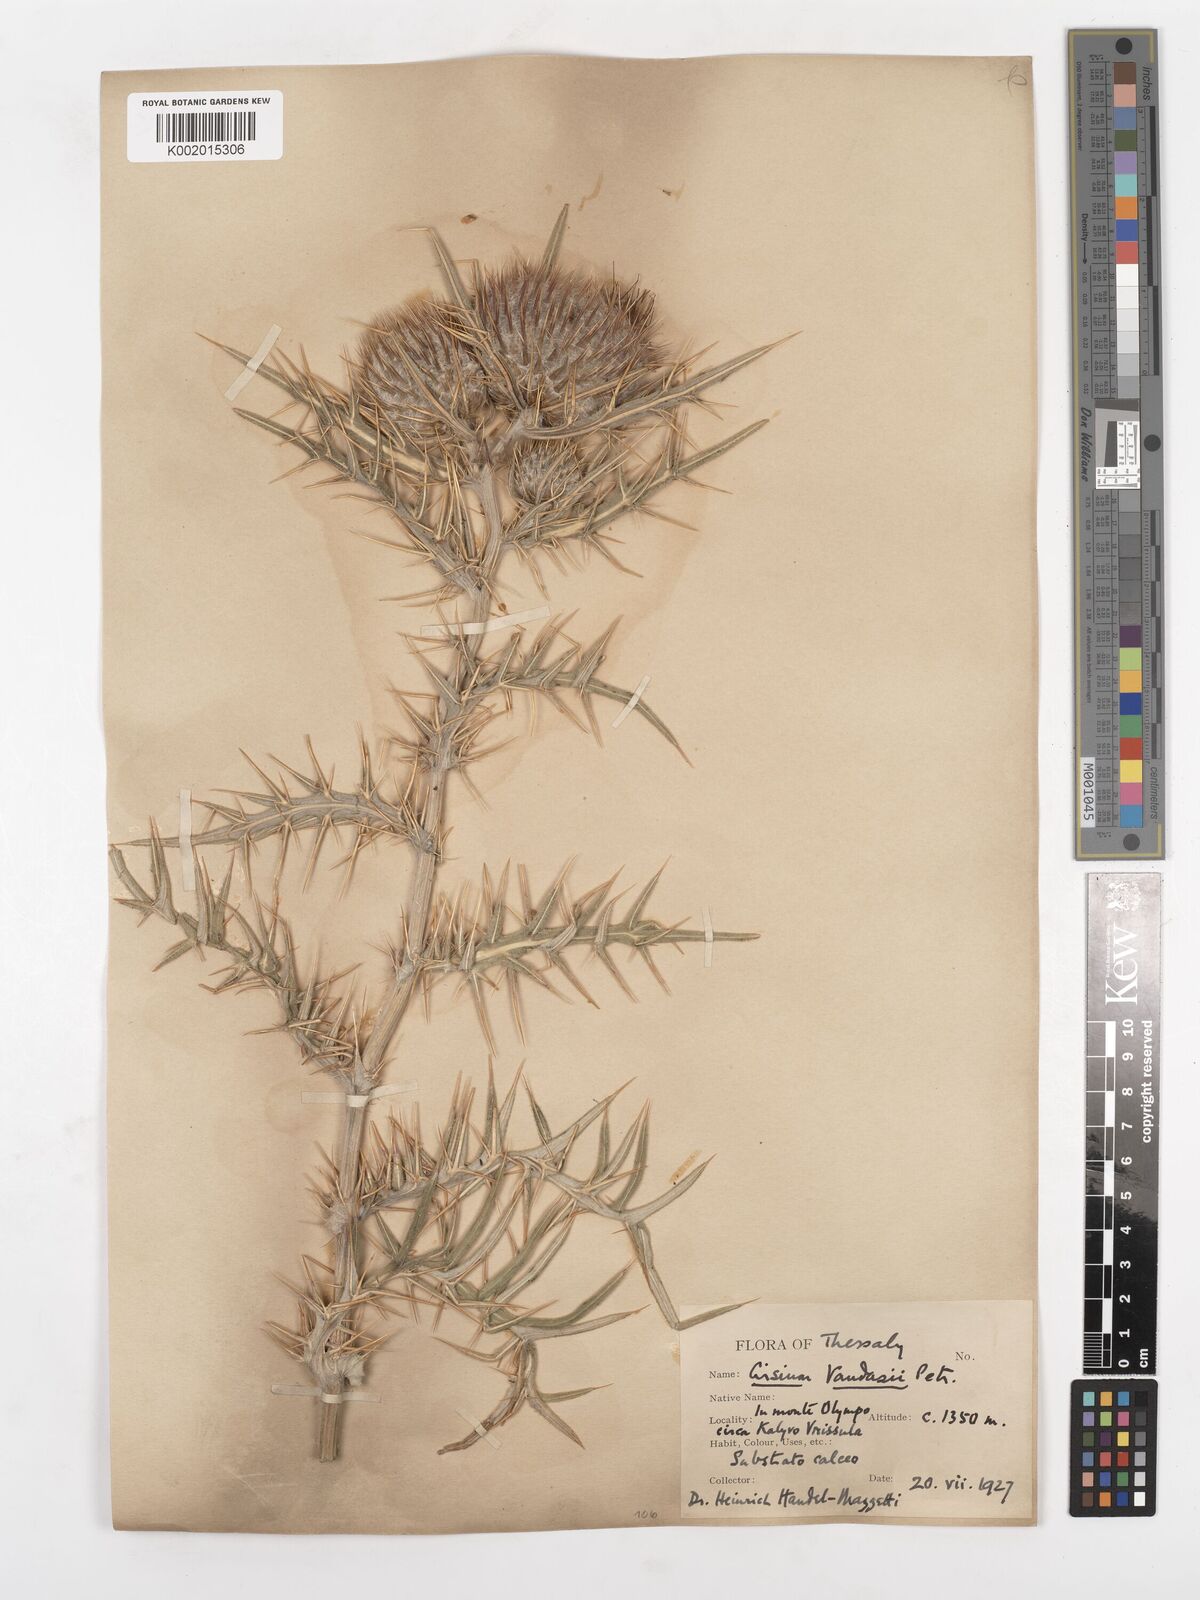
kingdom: Plantae
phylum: Tracheophyta
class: Magnoliopsida
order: Asterales
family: Asteraceae
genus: Lophiolepis
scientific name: Lophiolepis eriophora
